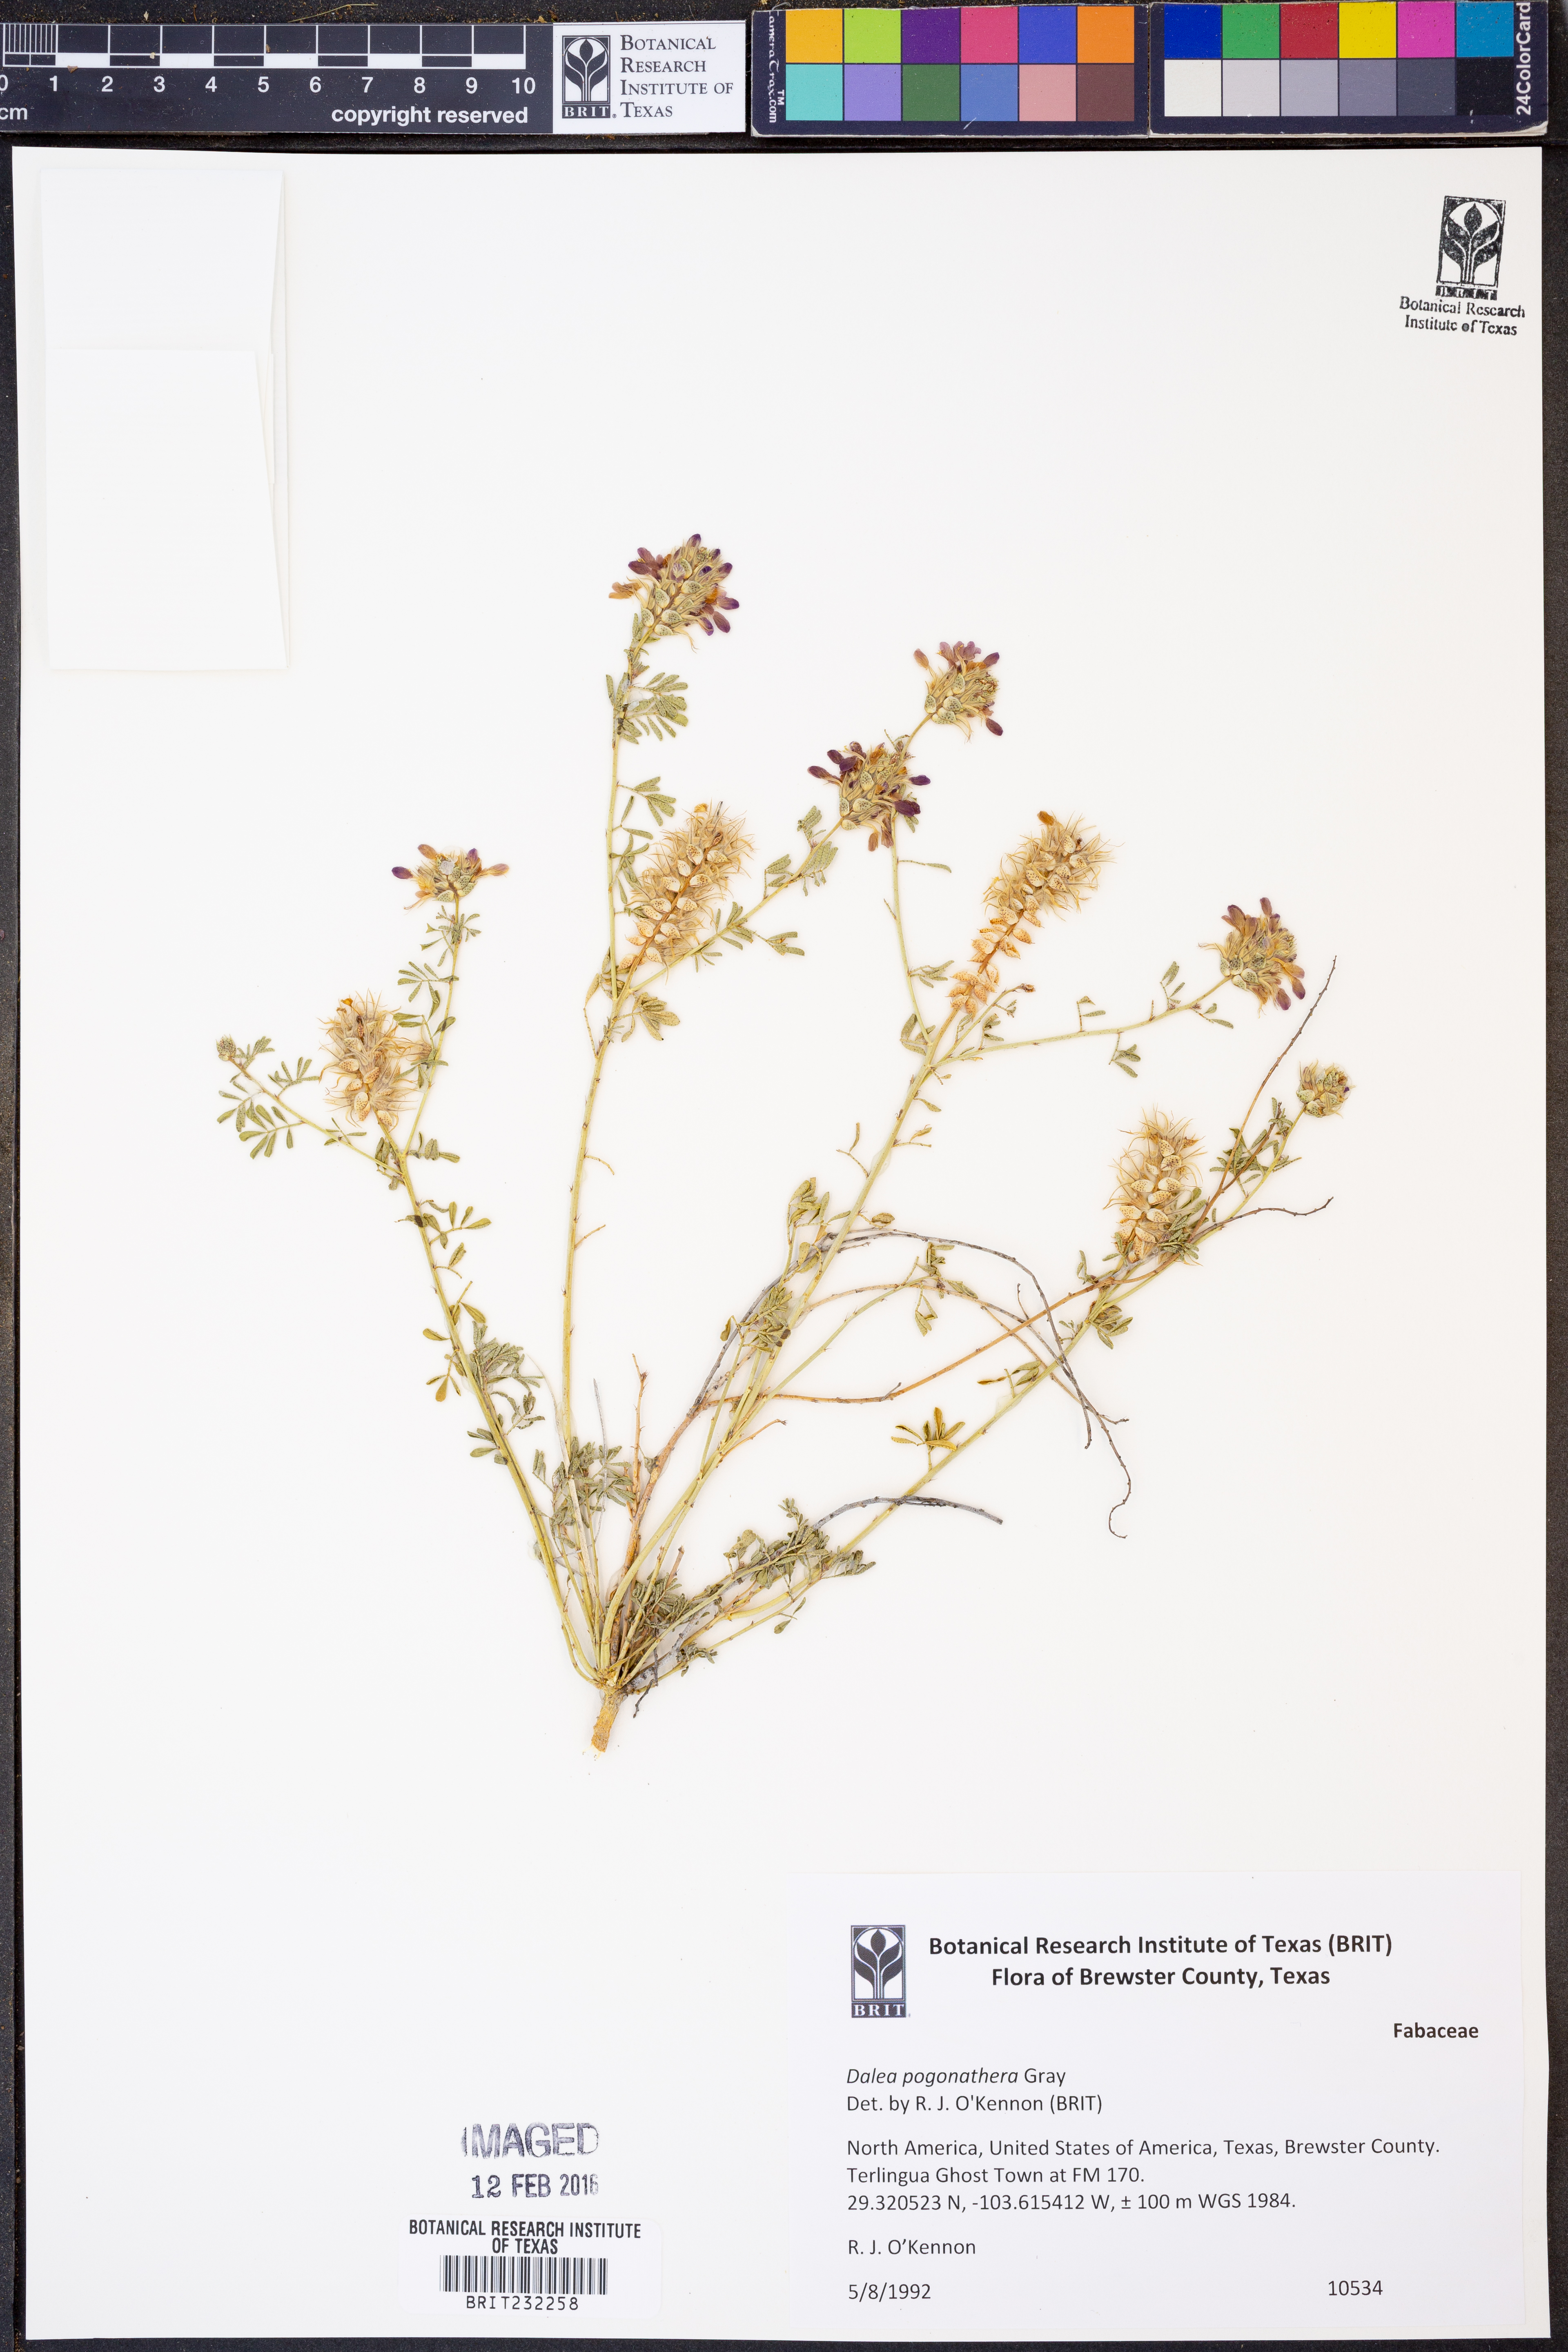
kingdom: Plantae
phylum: Tracheophyta
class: Magnoliopsida
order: Fabales
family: Fabaceae
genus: Dalea
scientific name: Dalea pogonathera
